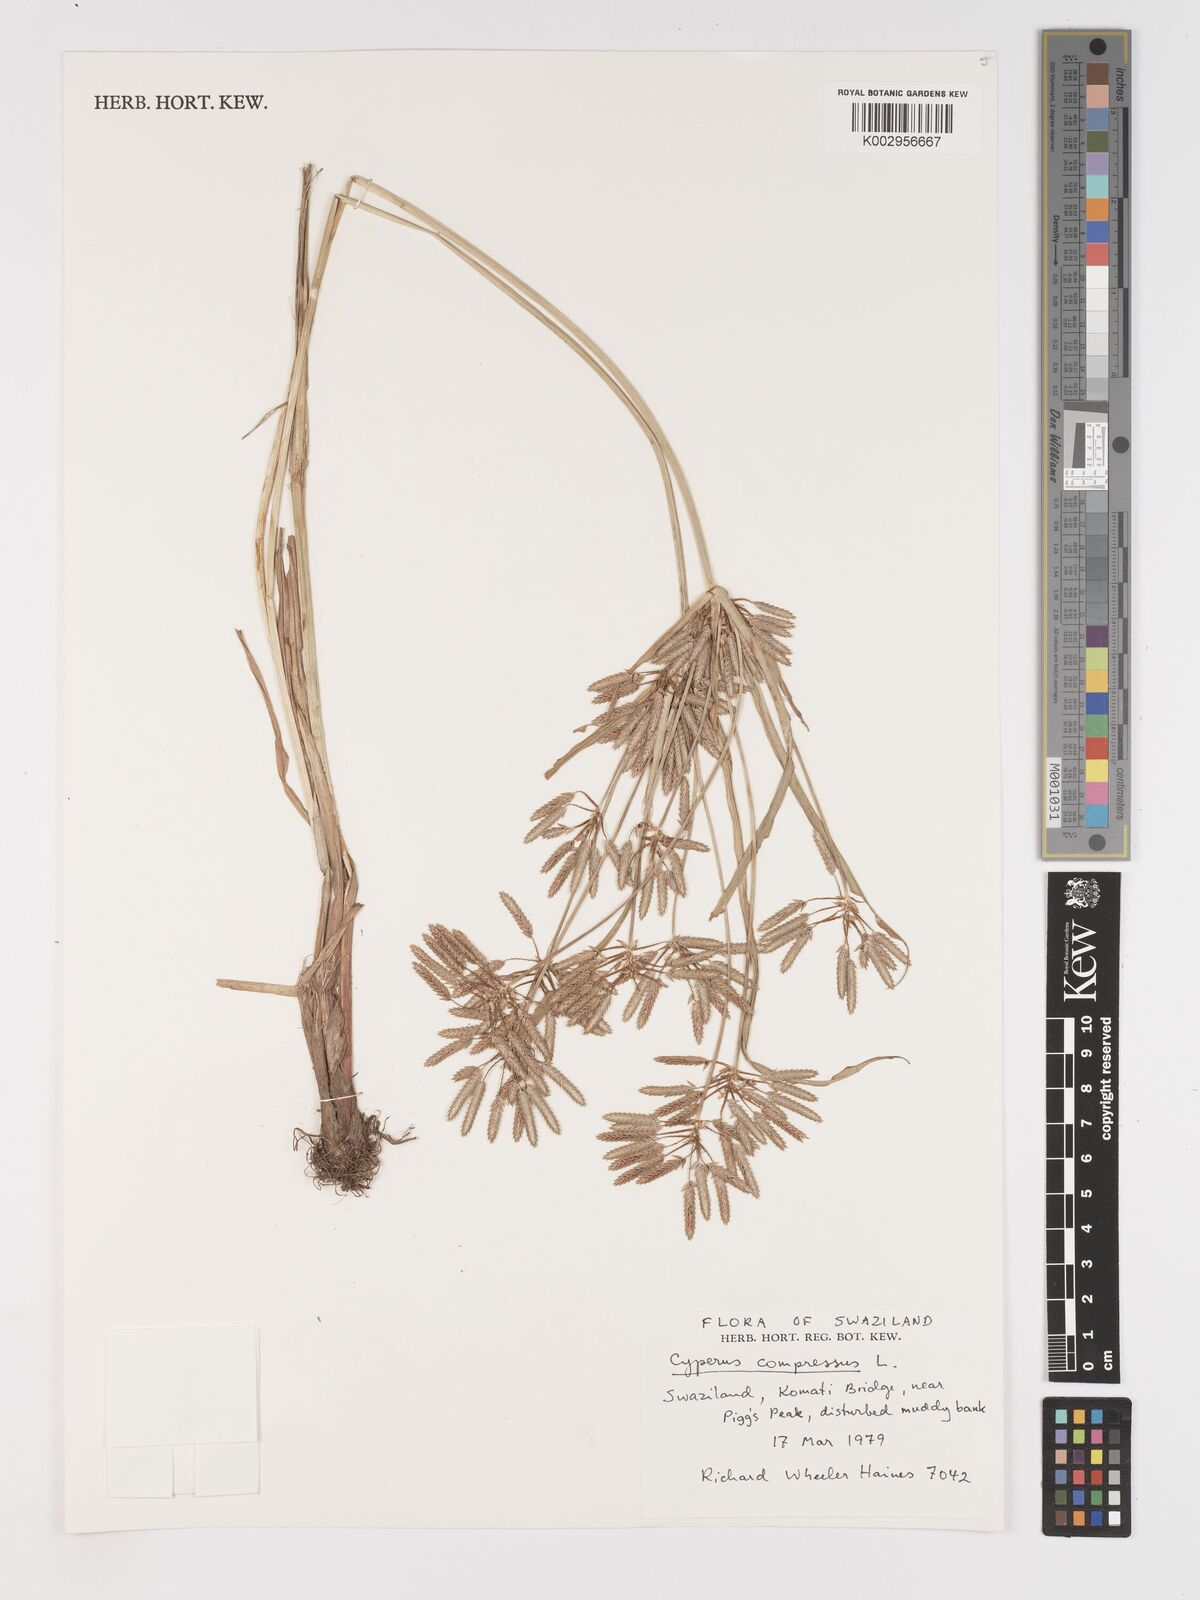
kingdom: Plantae
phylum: Tracheophyta
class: Liliopsida
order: Poales
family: Cyperaceae
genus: Cyperus
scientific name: Cyperus compressus
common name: Poorland flatsedge
